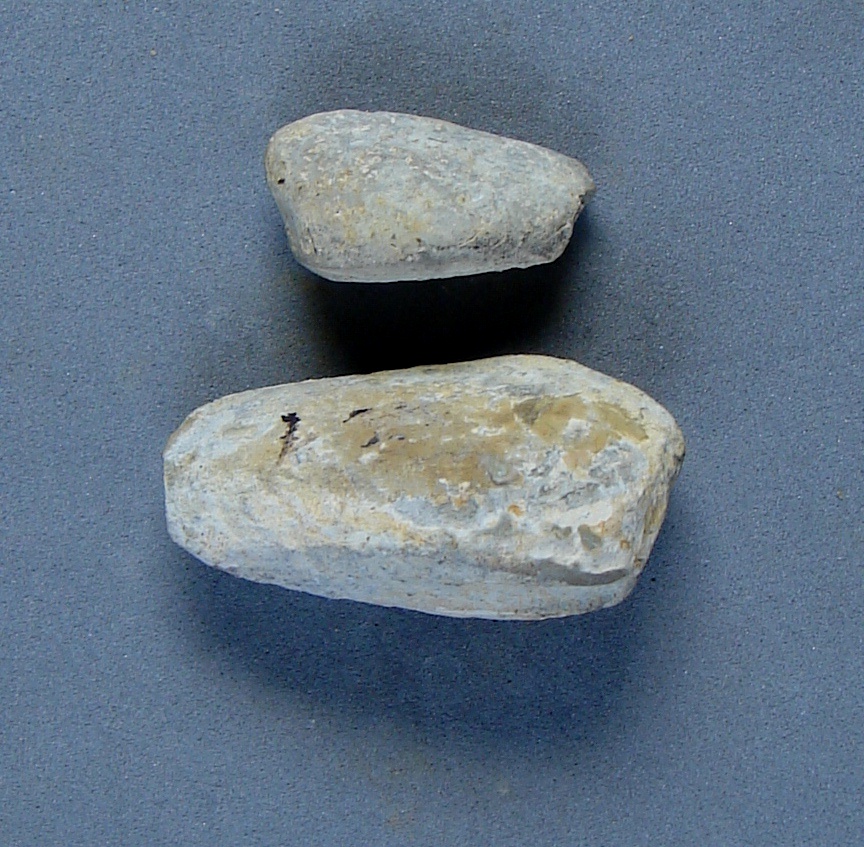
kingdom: Animalia
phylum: Mollusca
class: Bivalvia
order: Venerida
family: Trapezidae
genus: Trapezium
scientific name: Trapezium
